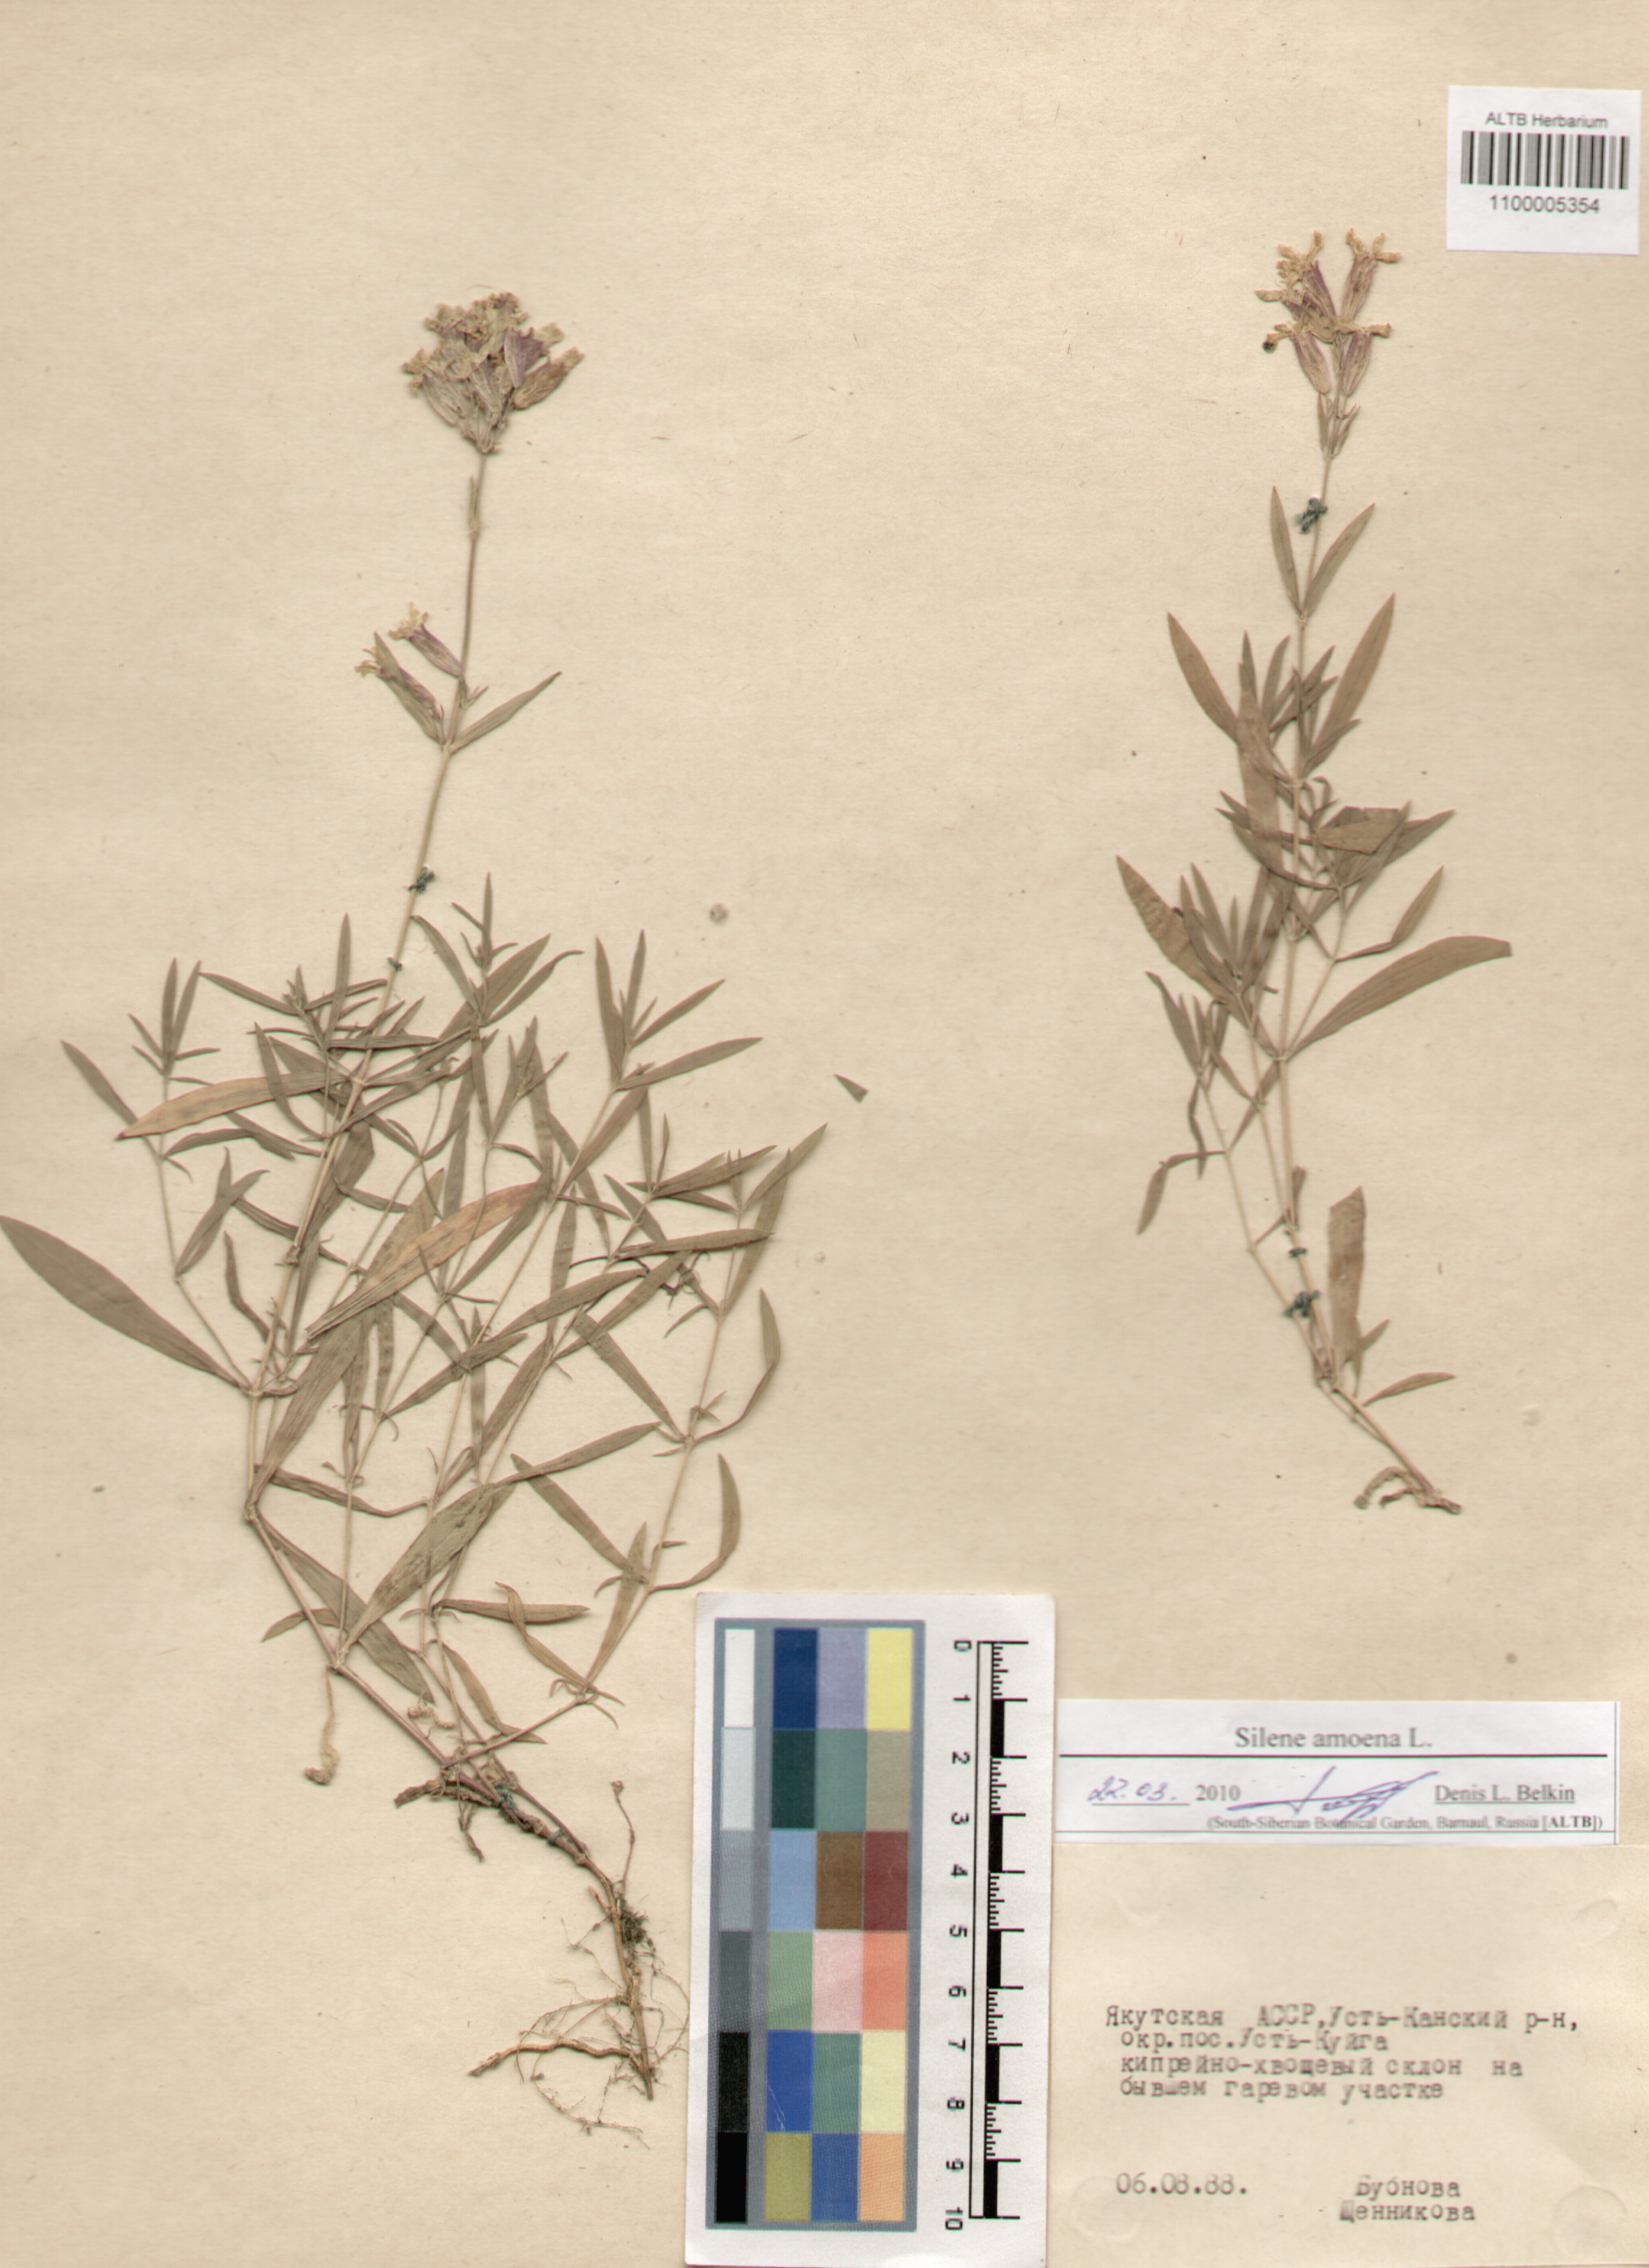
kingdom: Plantae
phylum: Tracheophyta
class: Magnoliopsida
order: Caryophyllales
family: Caryophyllaceae
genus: Silene
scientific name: Silene amoena
